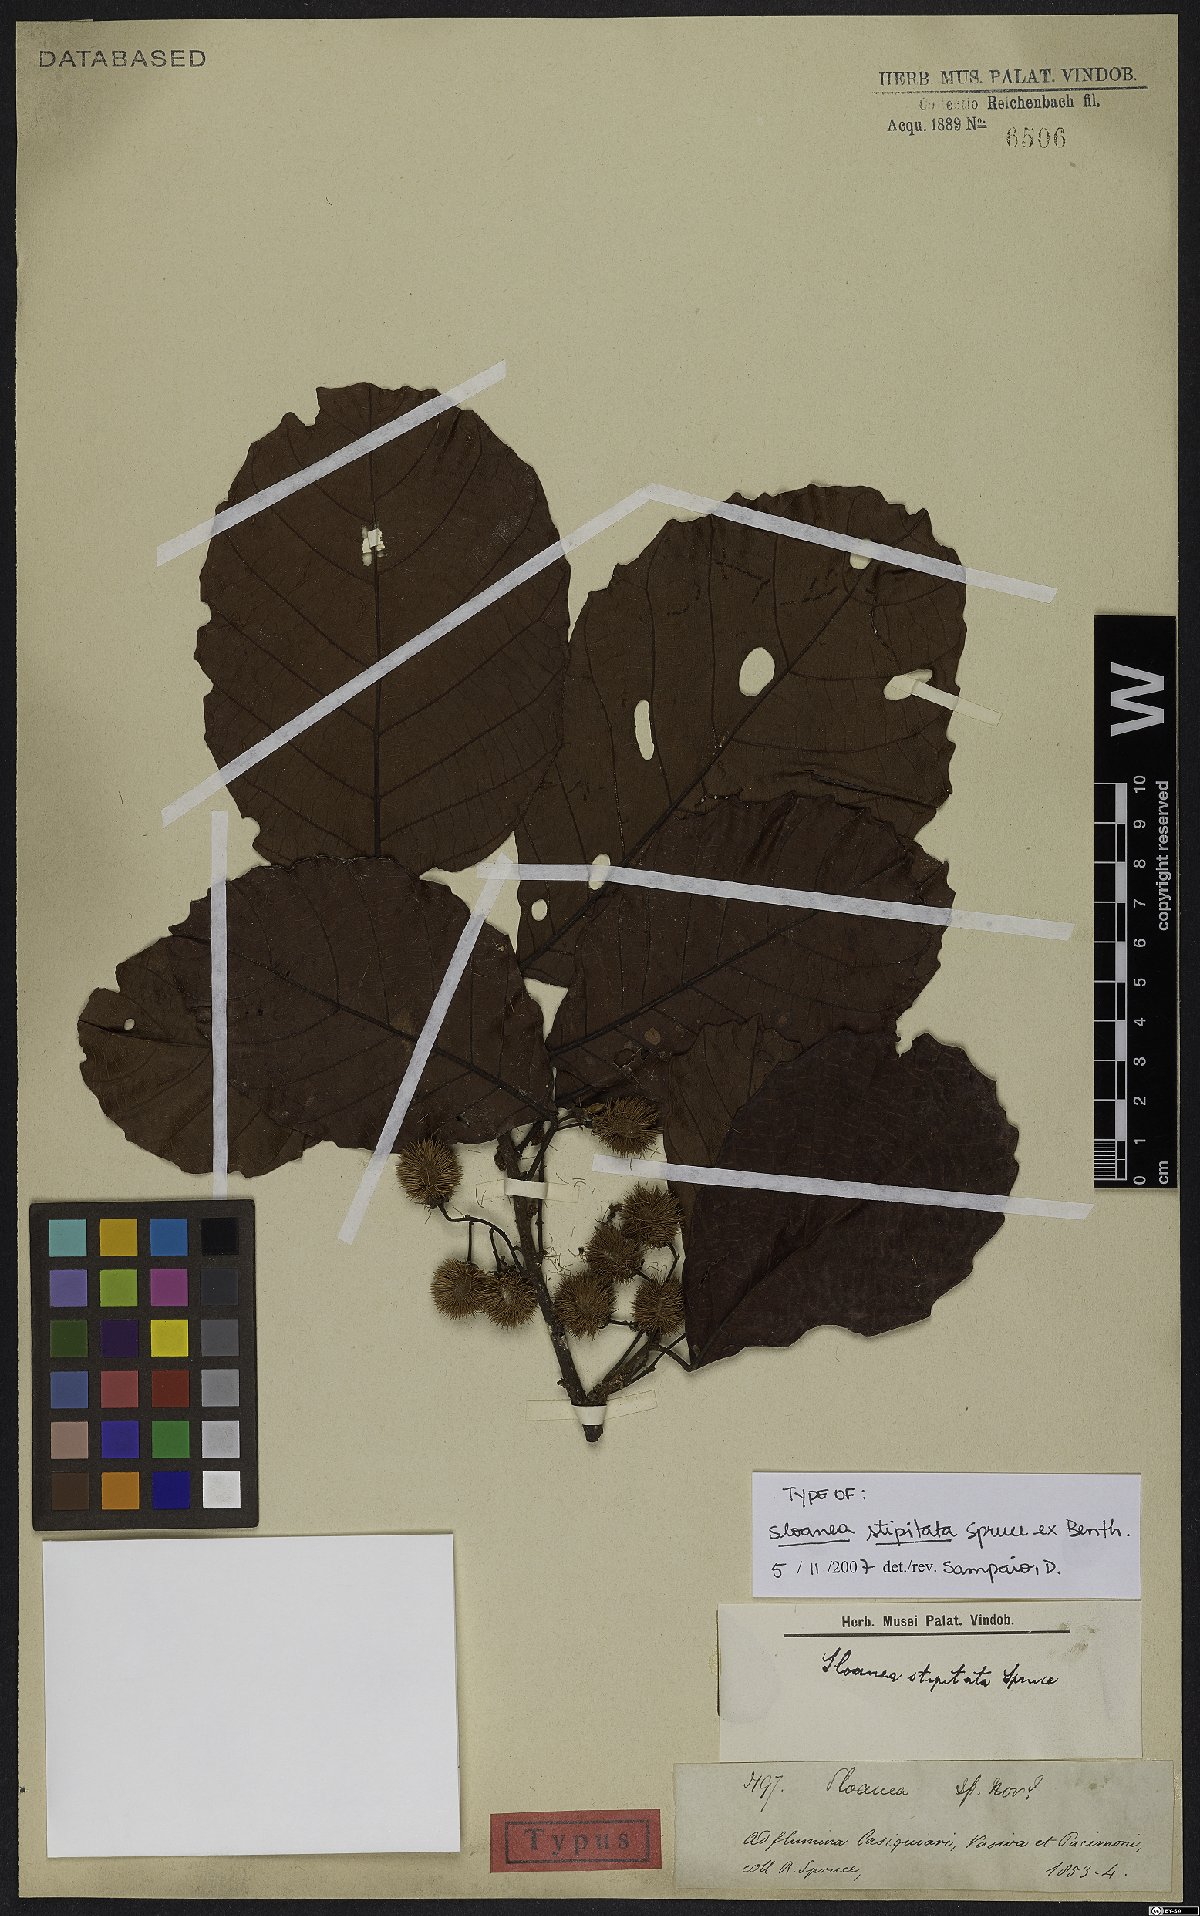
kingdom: Plantae
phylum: Tracheophyta
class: Magnoliopsida
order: Oxalidales
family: Elaeocarpaceae
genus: Sloanea
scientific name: Sloanea guianensis
